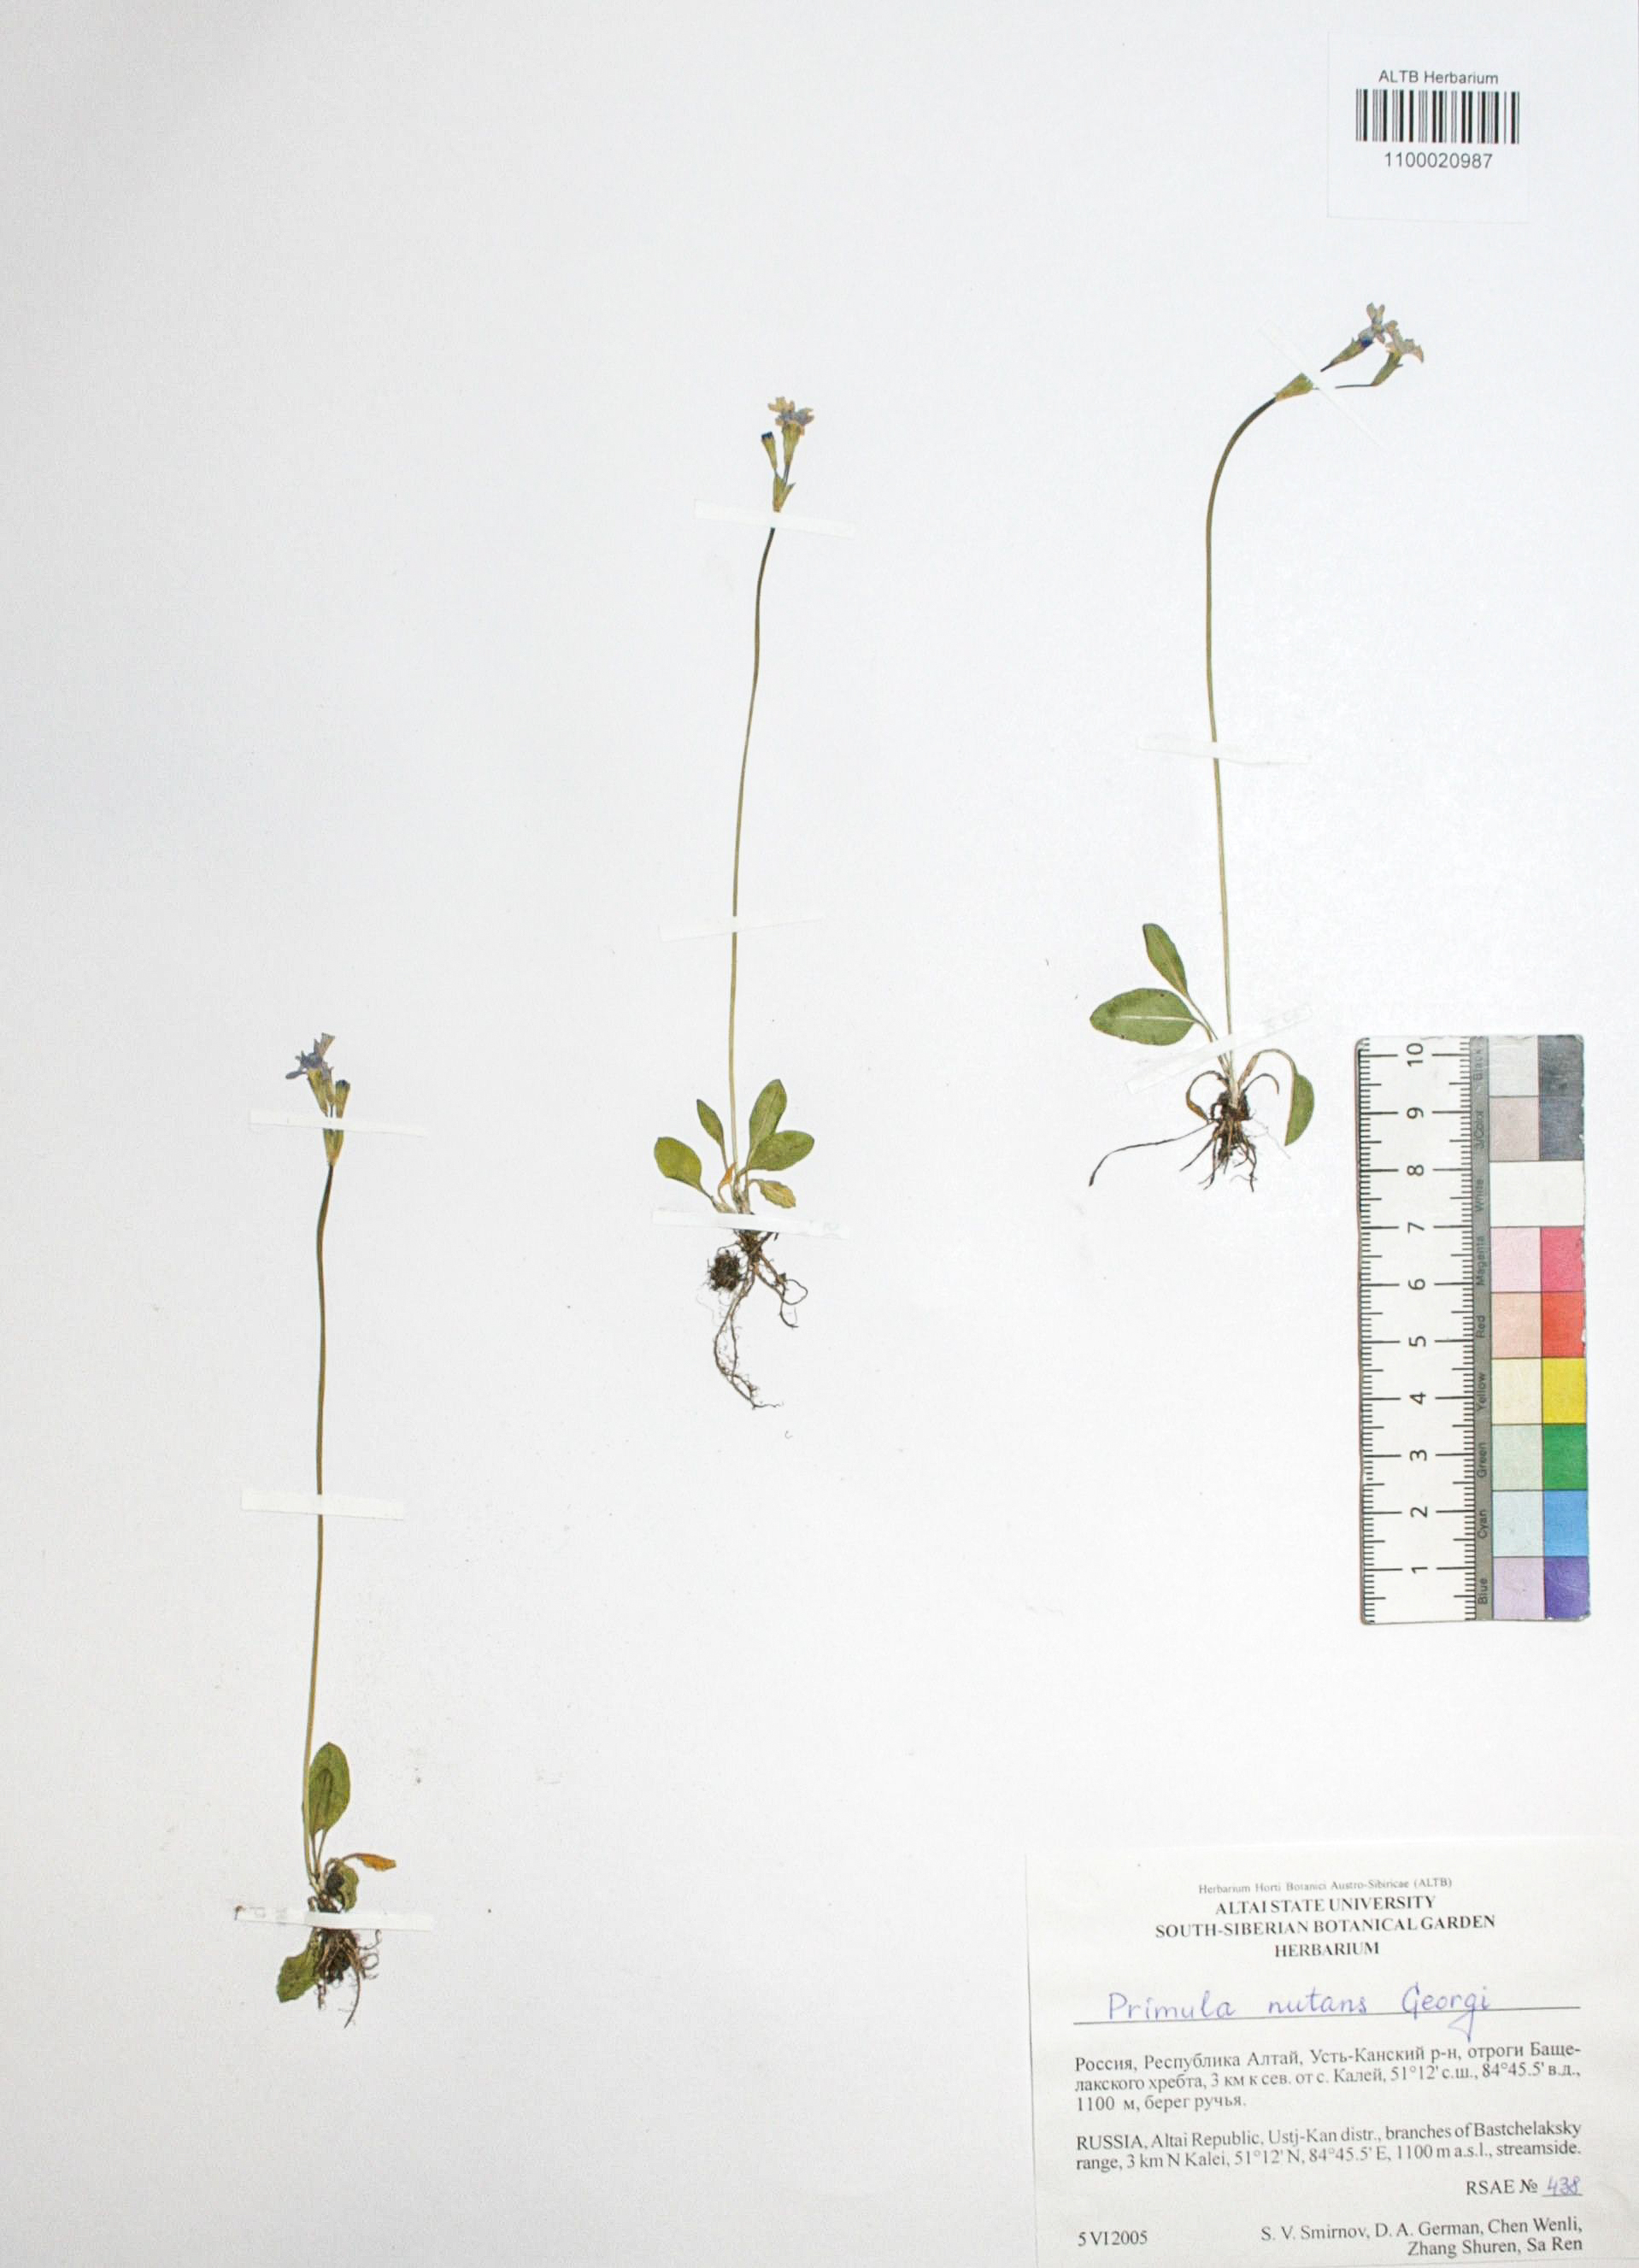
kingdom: Plantae
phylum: Tracheophyta
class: Magnoliopsida
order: Ericales
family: Primulaceae
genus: Primula
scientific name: Primula nutans
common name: Siberian primrose
